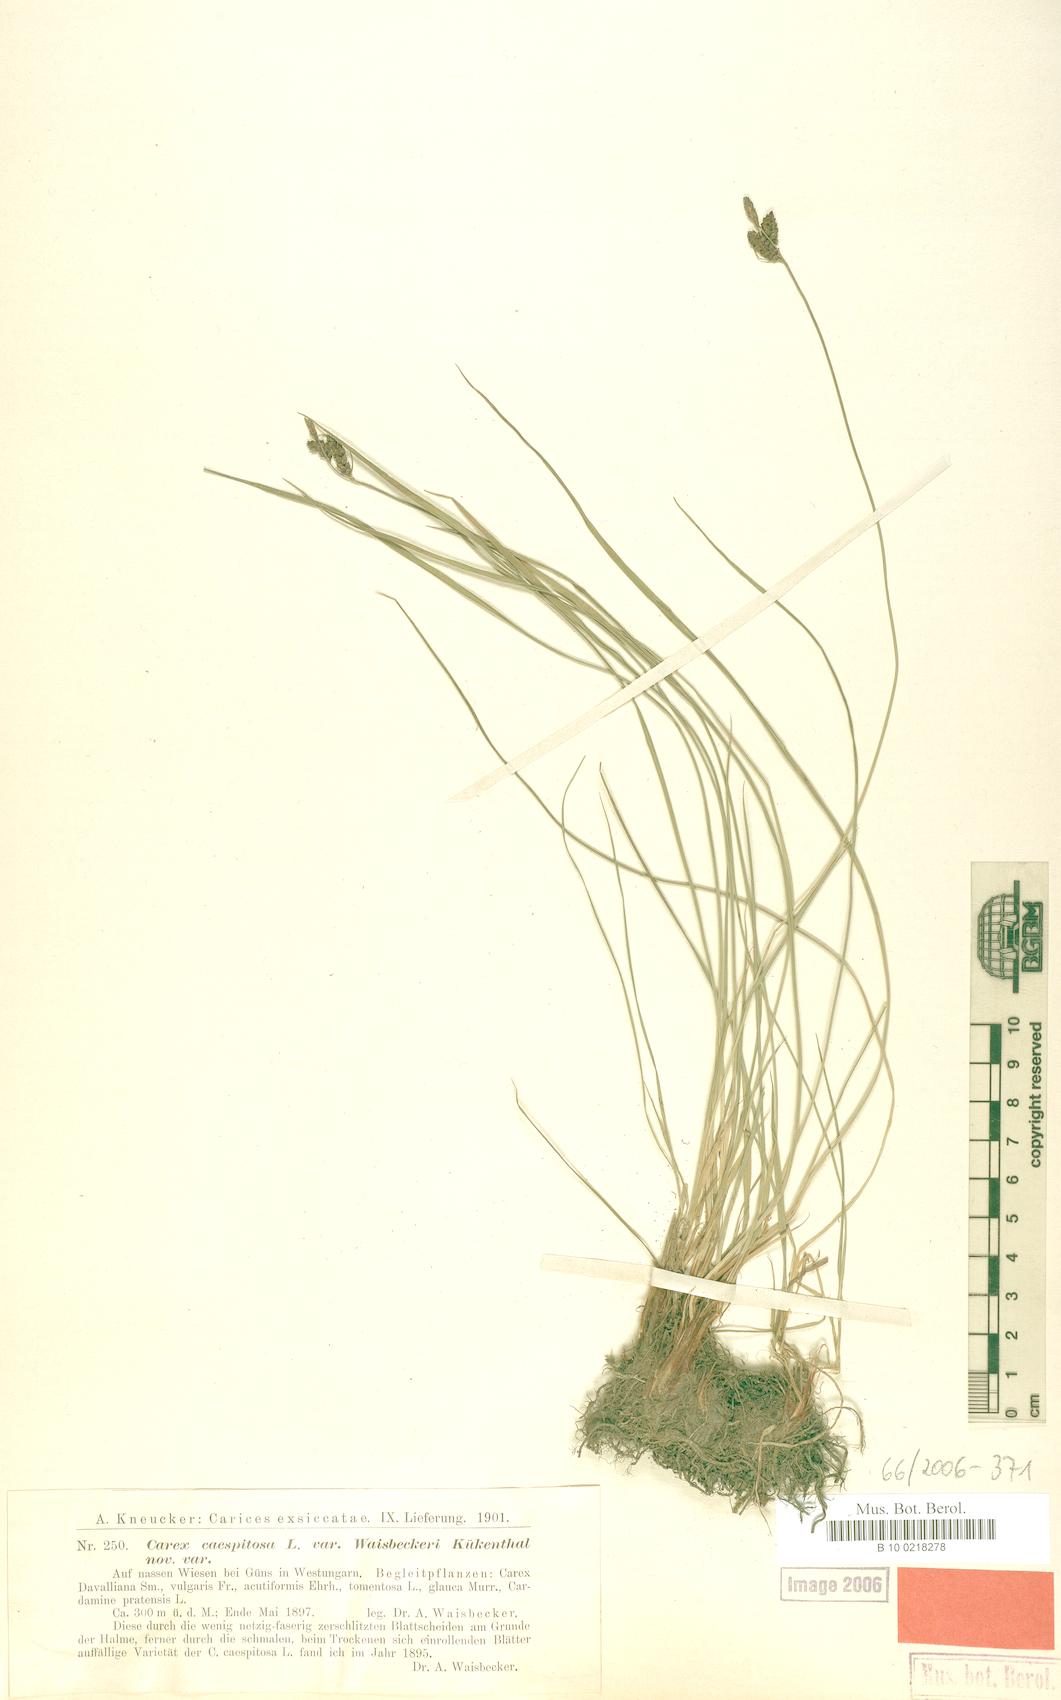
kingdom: Plantae
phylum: Tracheophyta
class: Liliopsida
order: Poales
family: Cyperaceae
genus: Carex
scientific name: Carex cespitosa
